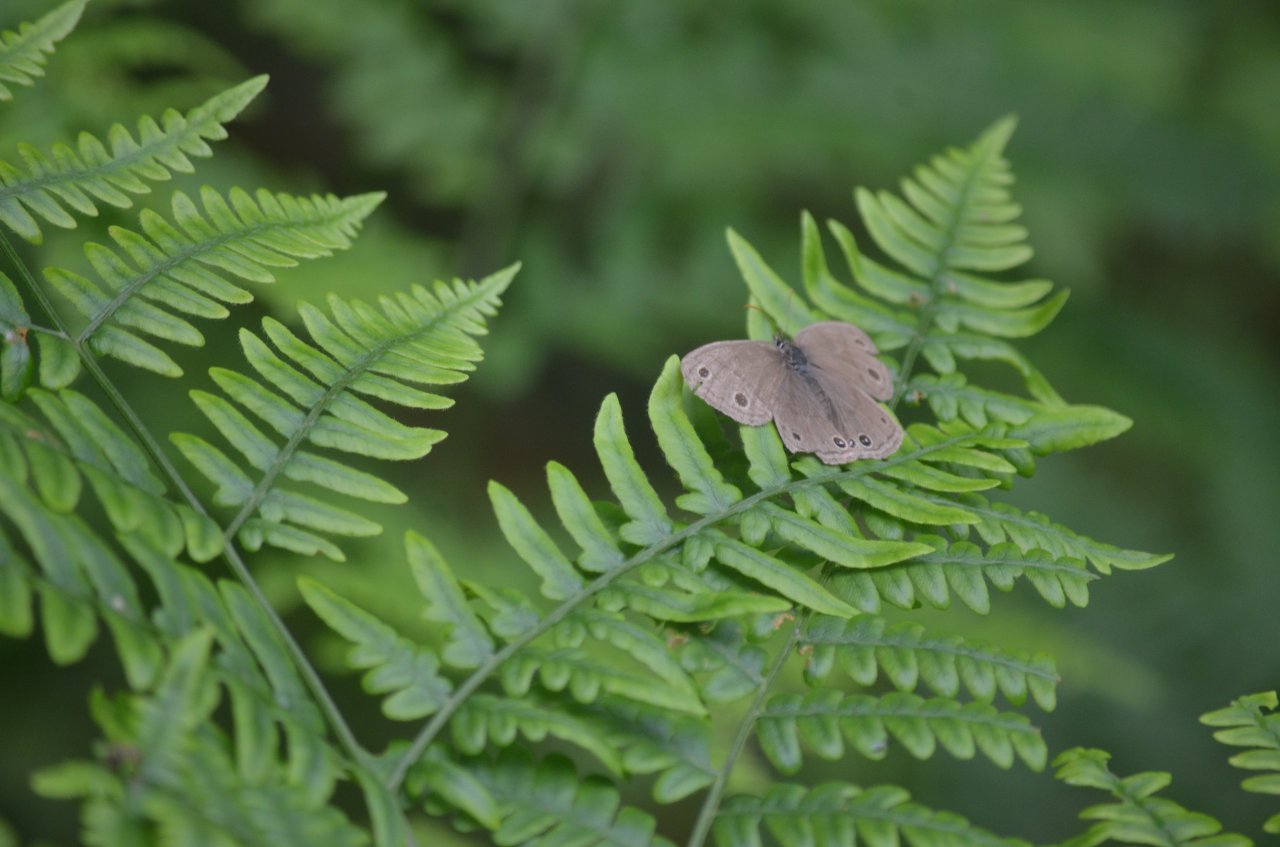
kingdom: Animalia
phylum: Arthropoda
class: Insecta
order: Lepidoptera
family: Nymphalidae
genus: Euptychia
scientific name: Euptychia cymela
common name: Little Wood Satyr
